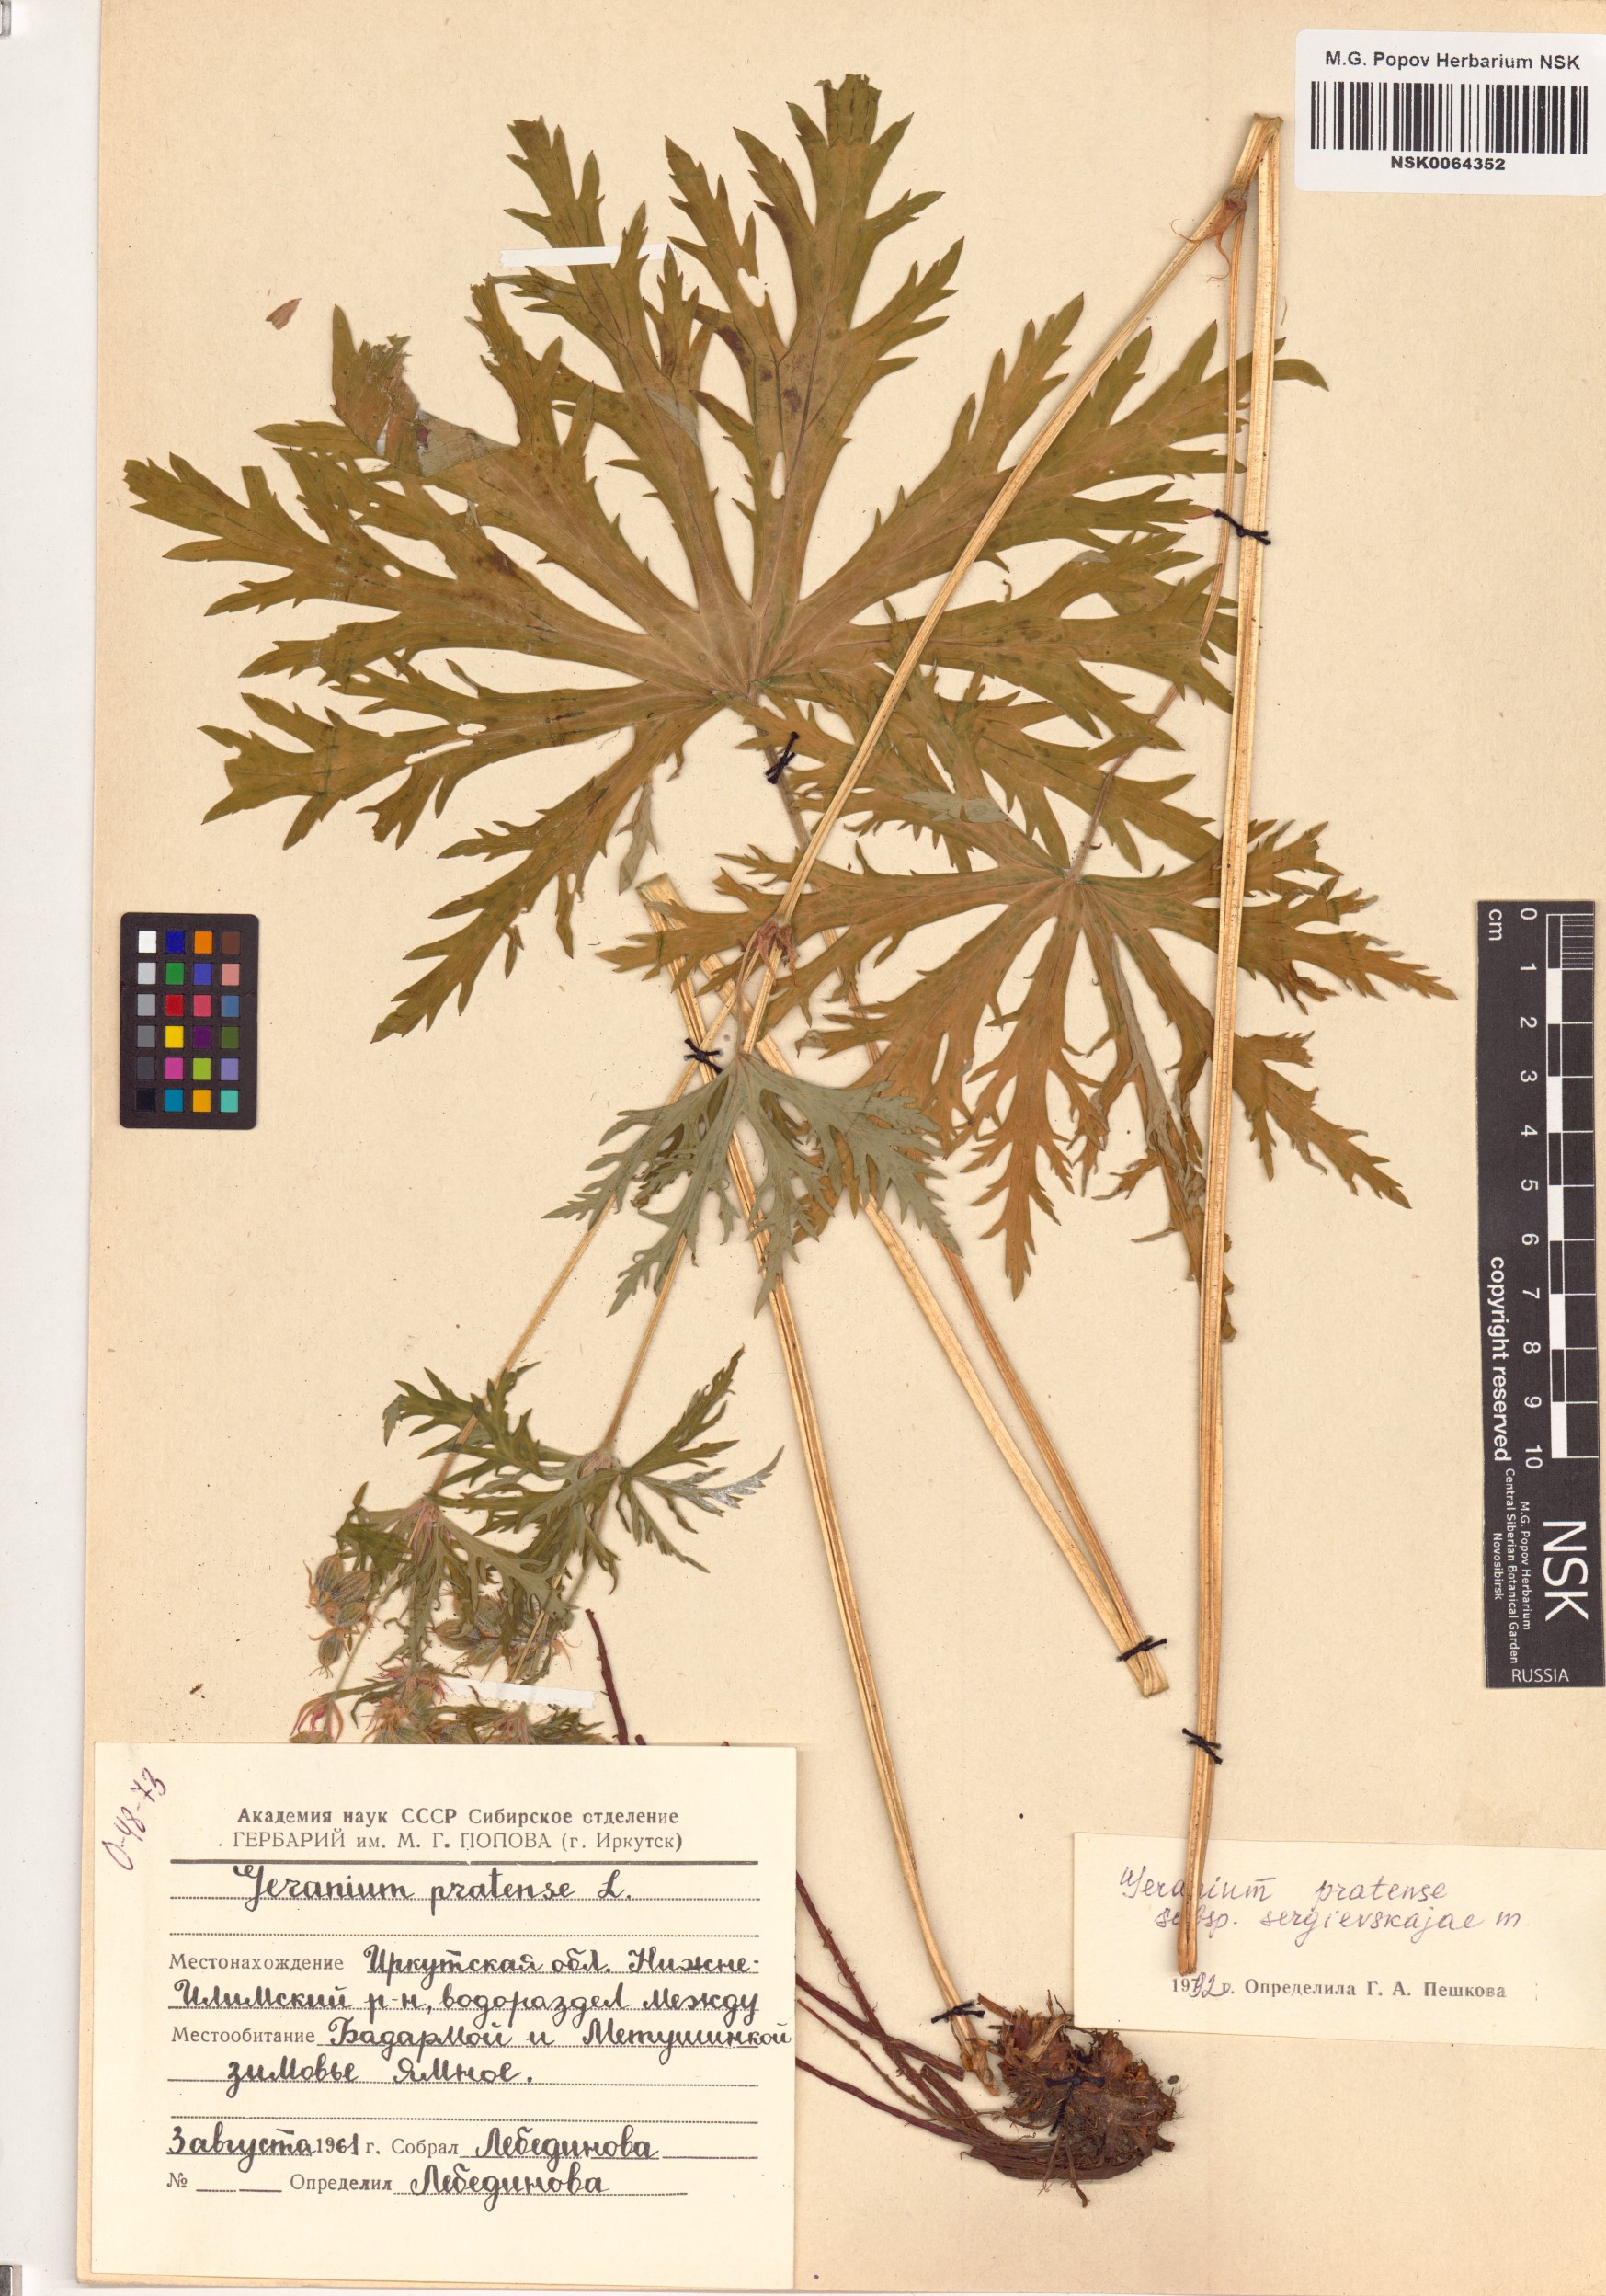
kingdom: Plantae
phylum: Tracheophyta
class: Magnoliopsida
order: Geraniales
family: Geraniaceae
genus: Geranium
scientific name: Geranium pratense
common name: Meadow crane's-bill
